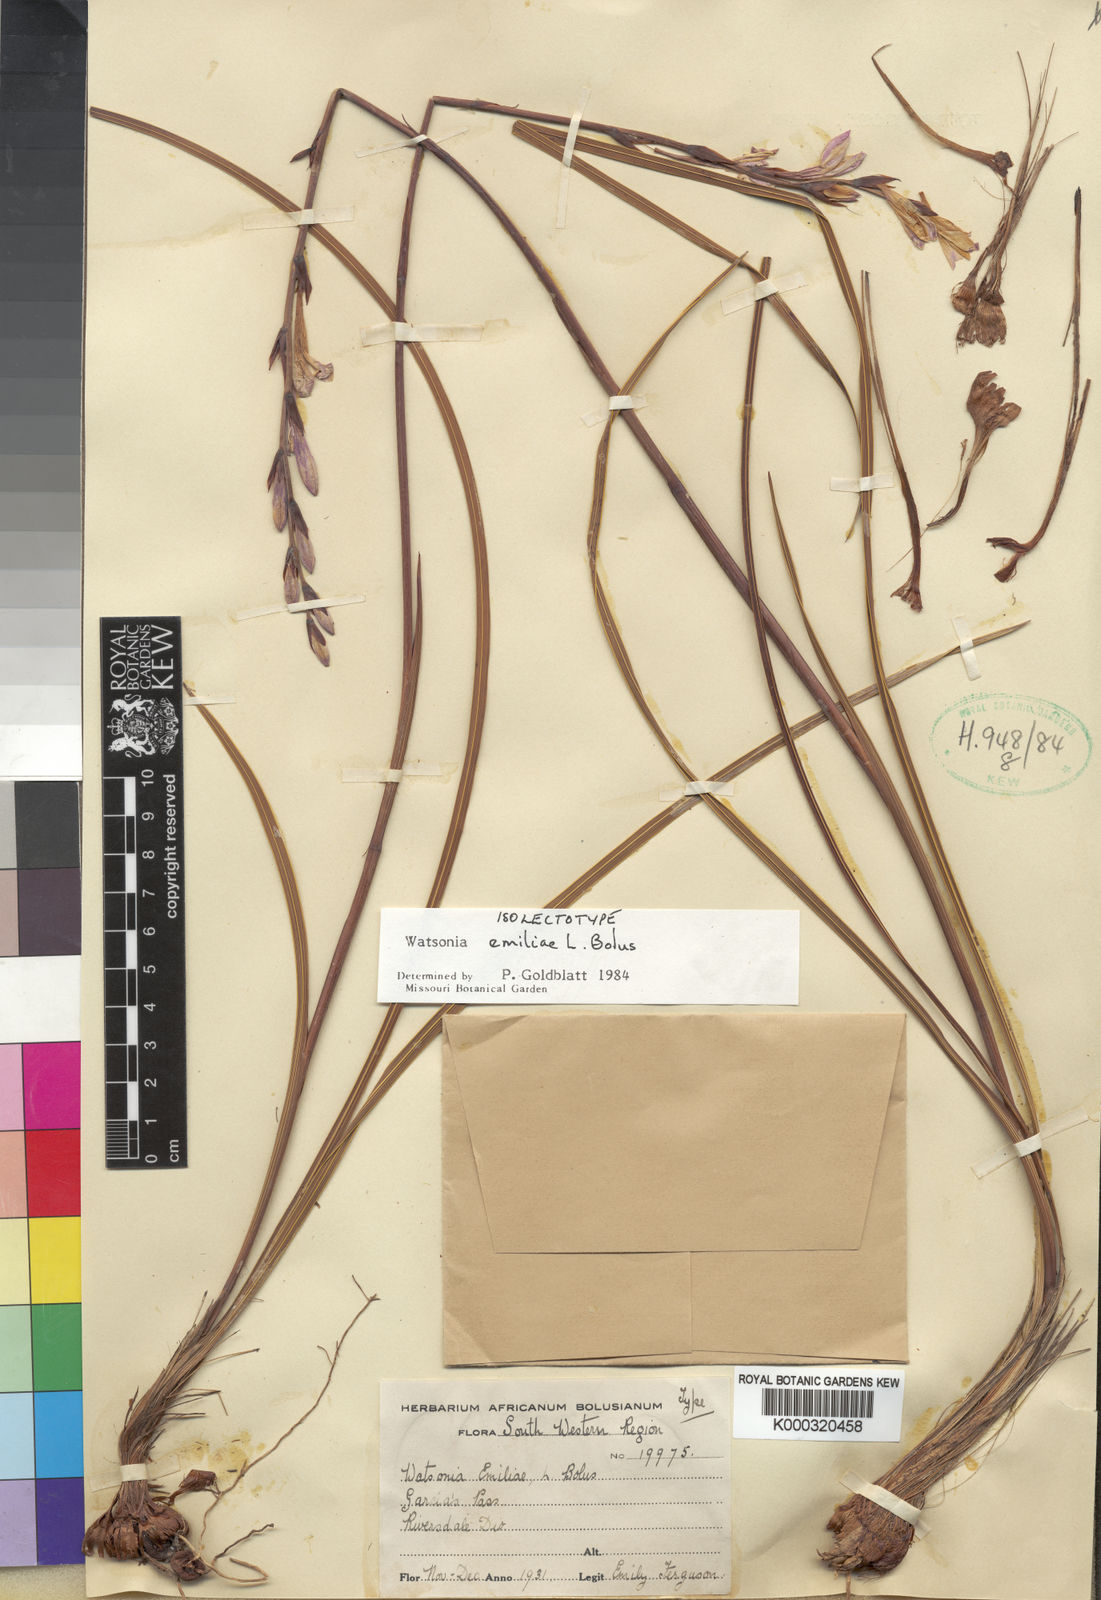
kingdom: Plantae
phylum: Tracheophyta
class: Liliopsida
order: Asparagales
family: Iridaceae
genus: Watsonia
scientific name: Watsonia emiliae
